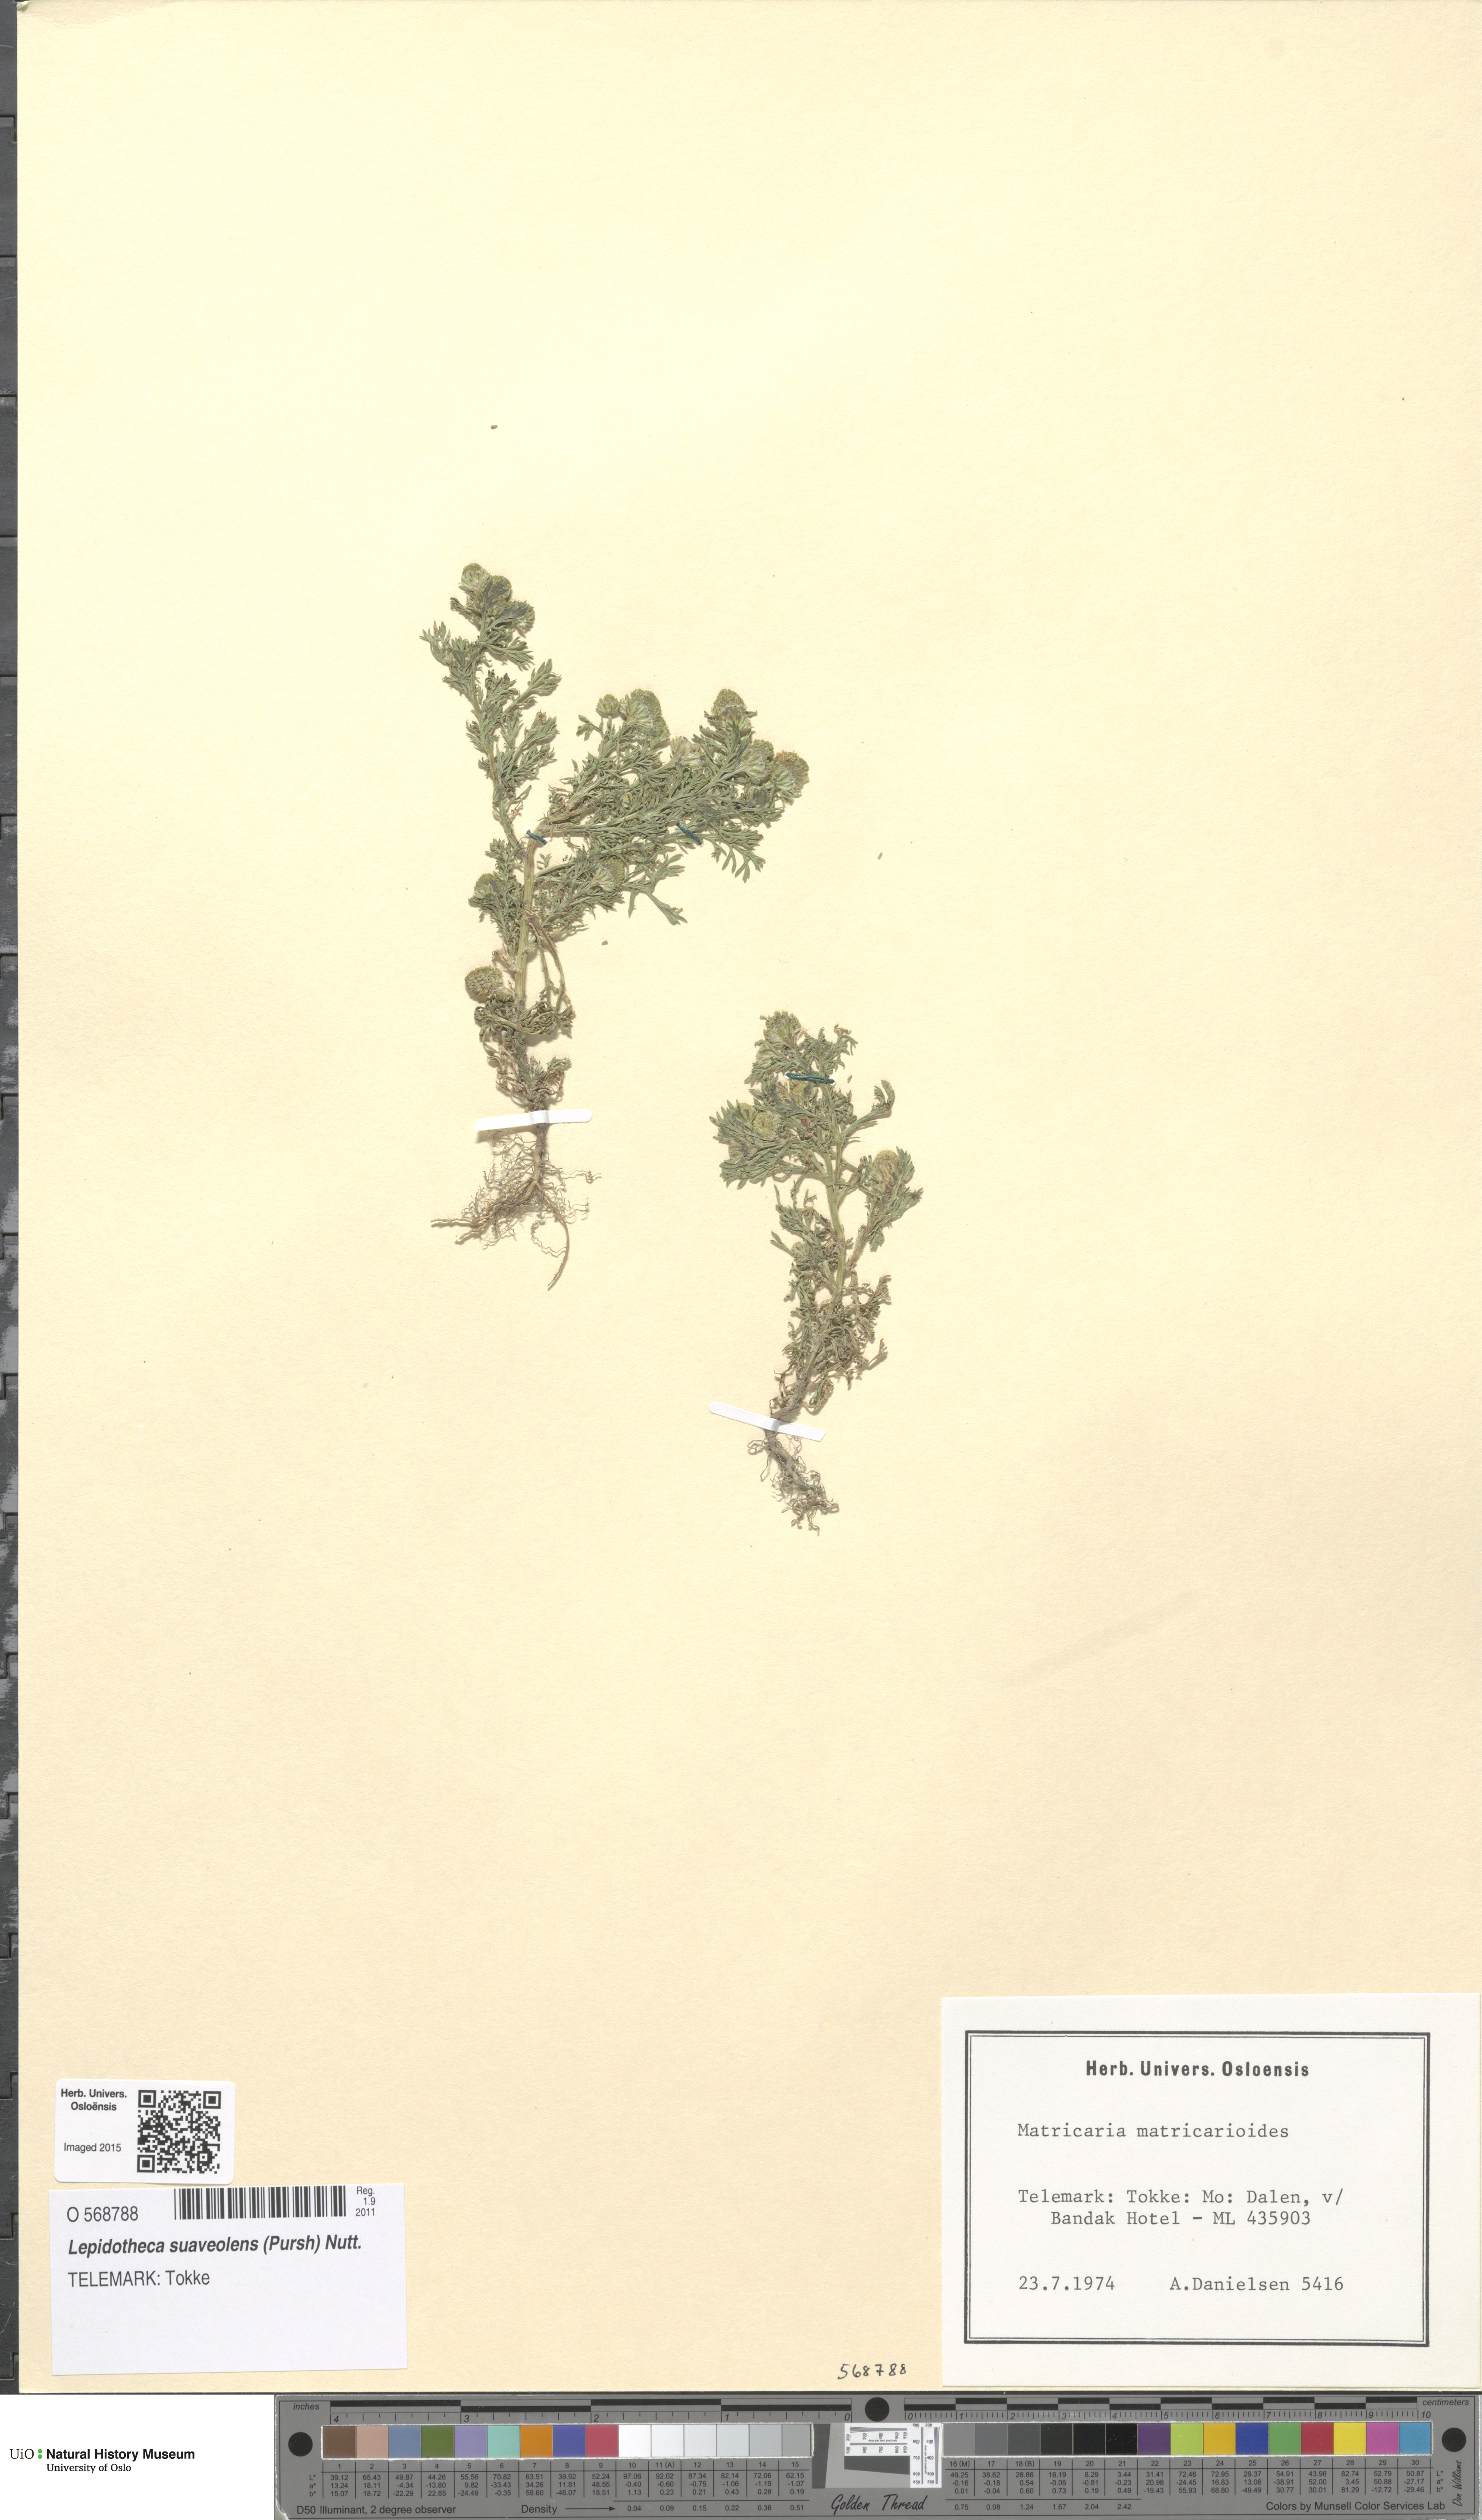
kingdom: Plantae
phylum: Tracheophyta
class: Magnoliopsida
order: Asterales
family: Asteraceae
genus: Matricaria
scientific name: Matricaria discoidea
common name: Disc mayweed
